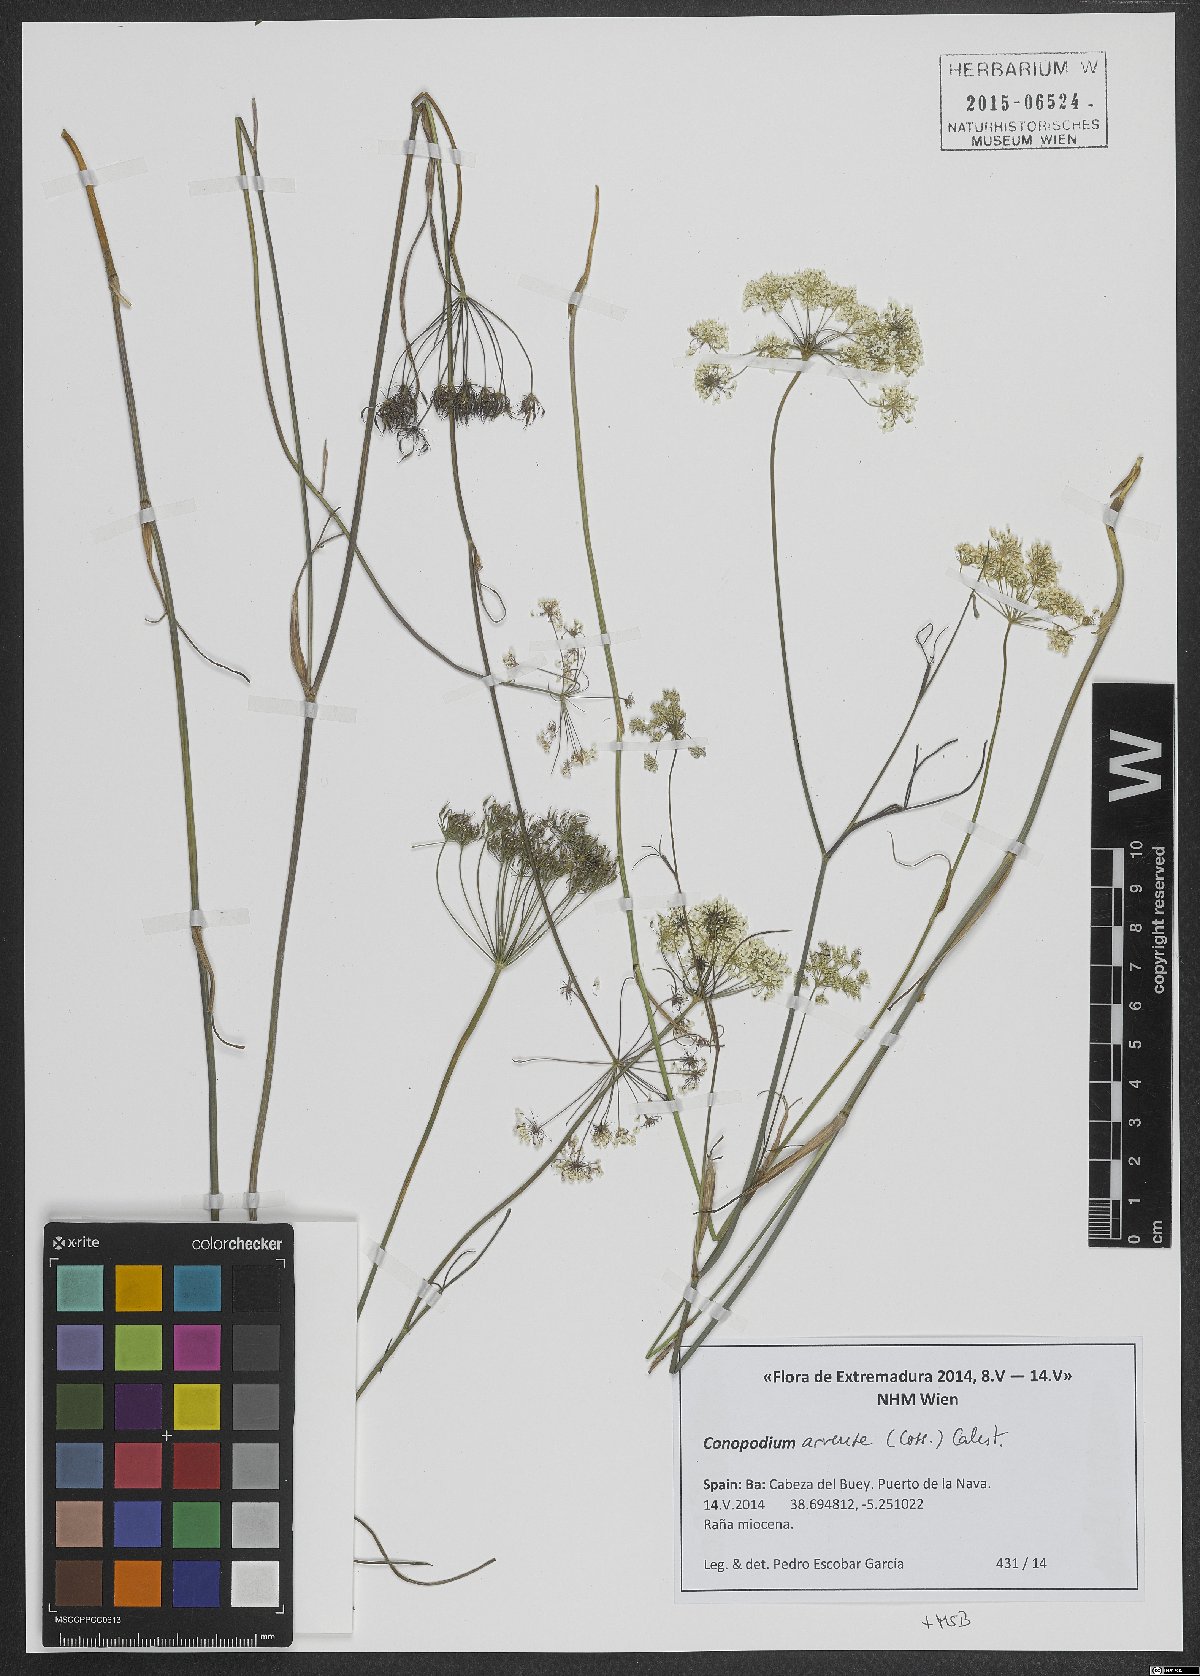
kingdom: Plantae
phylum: Tracheophyta
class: Magnoliopsida
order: Apiales
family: Apiaceae
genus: Conopodium
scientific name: Conopodium arvense
